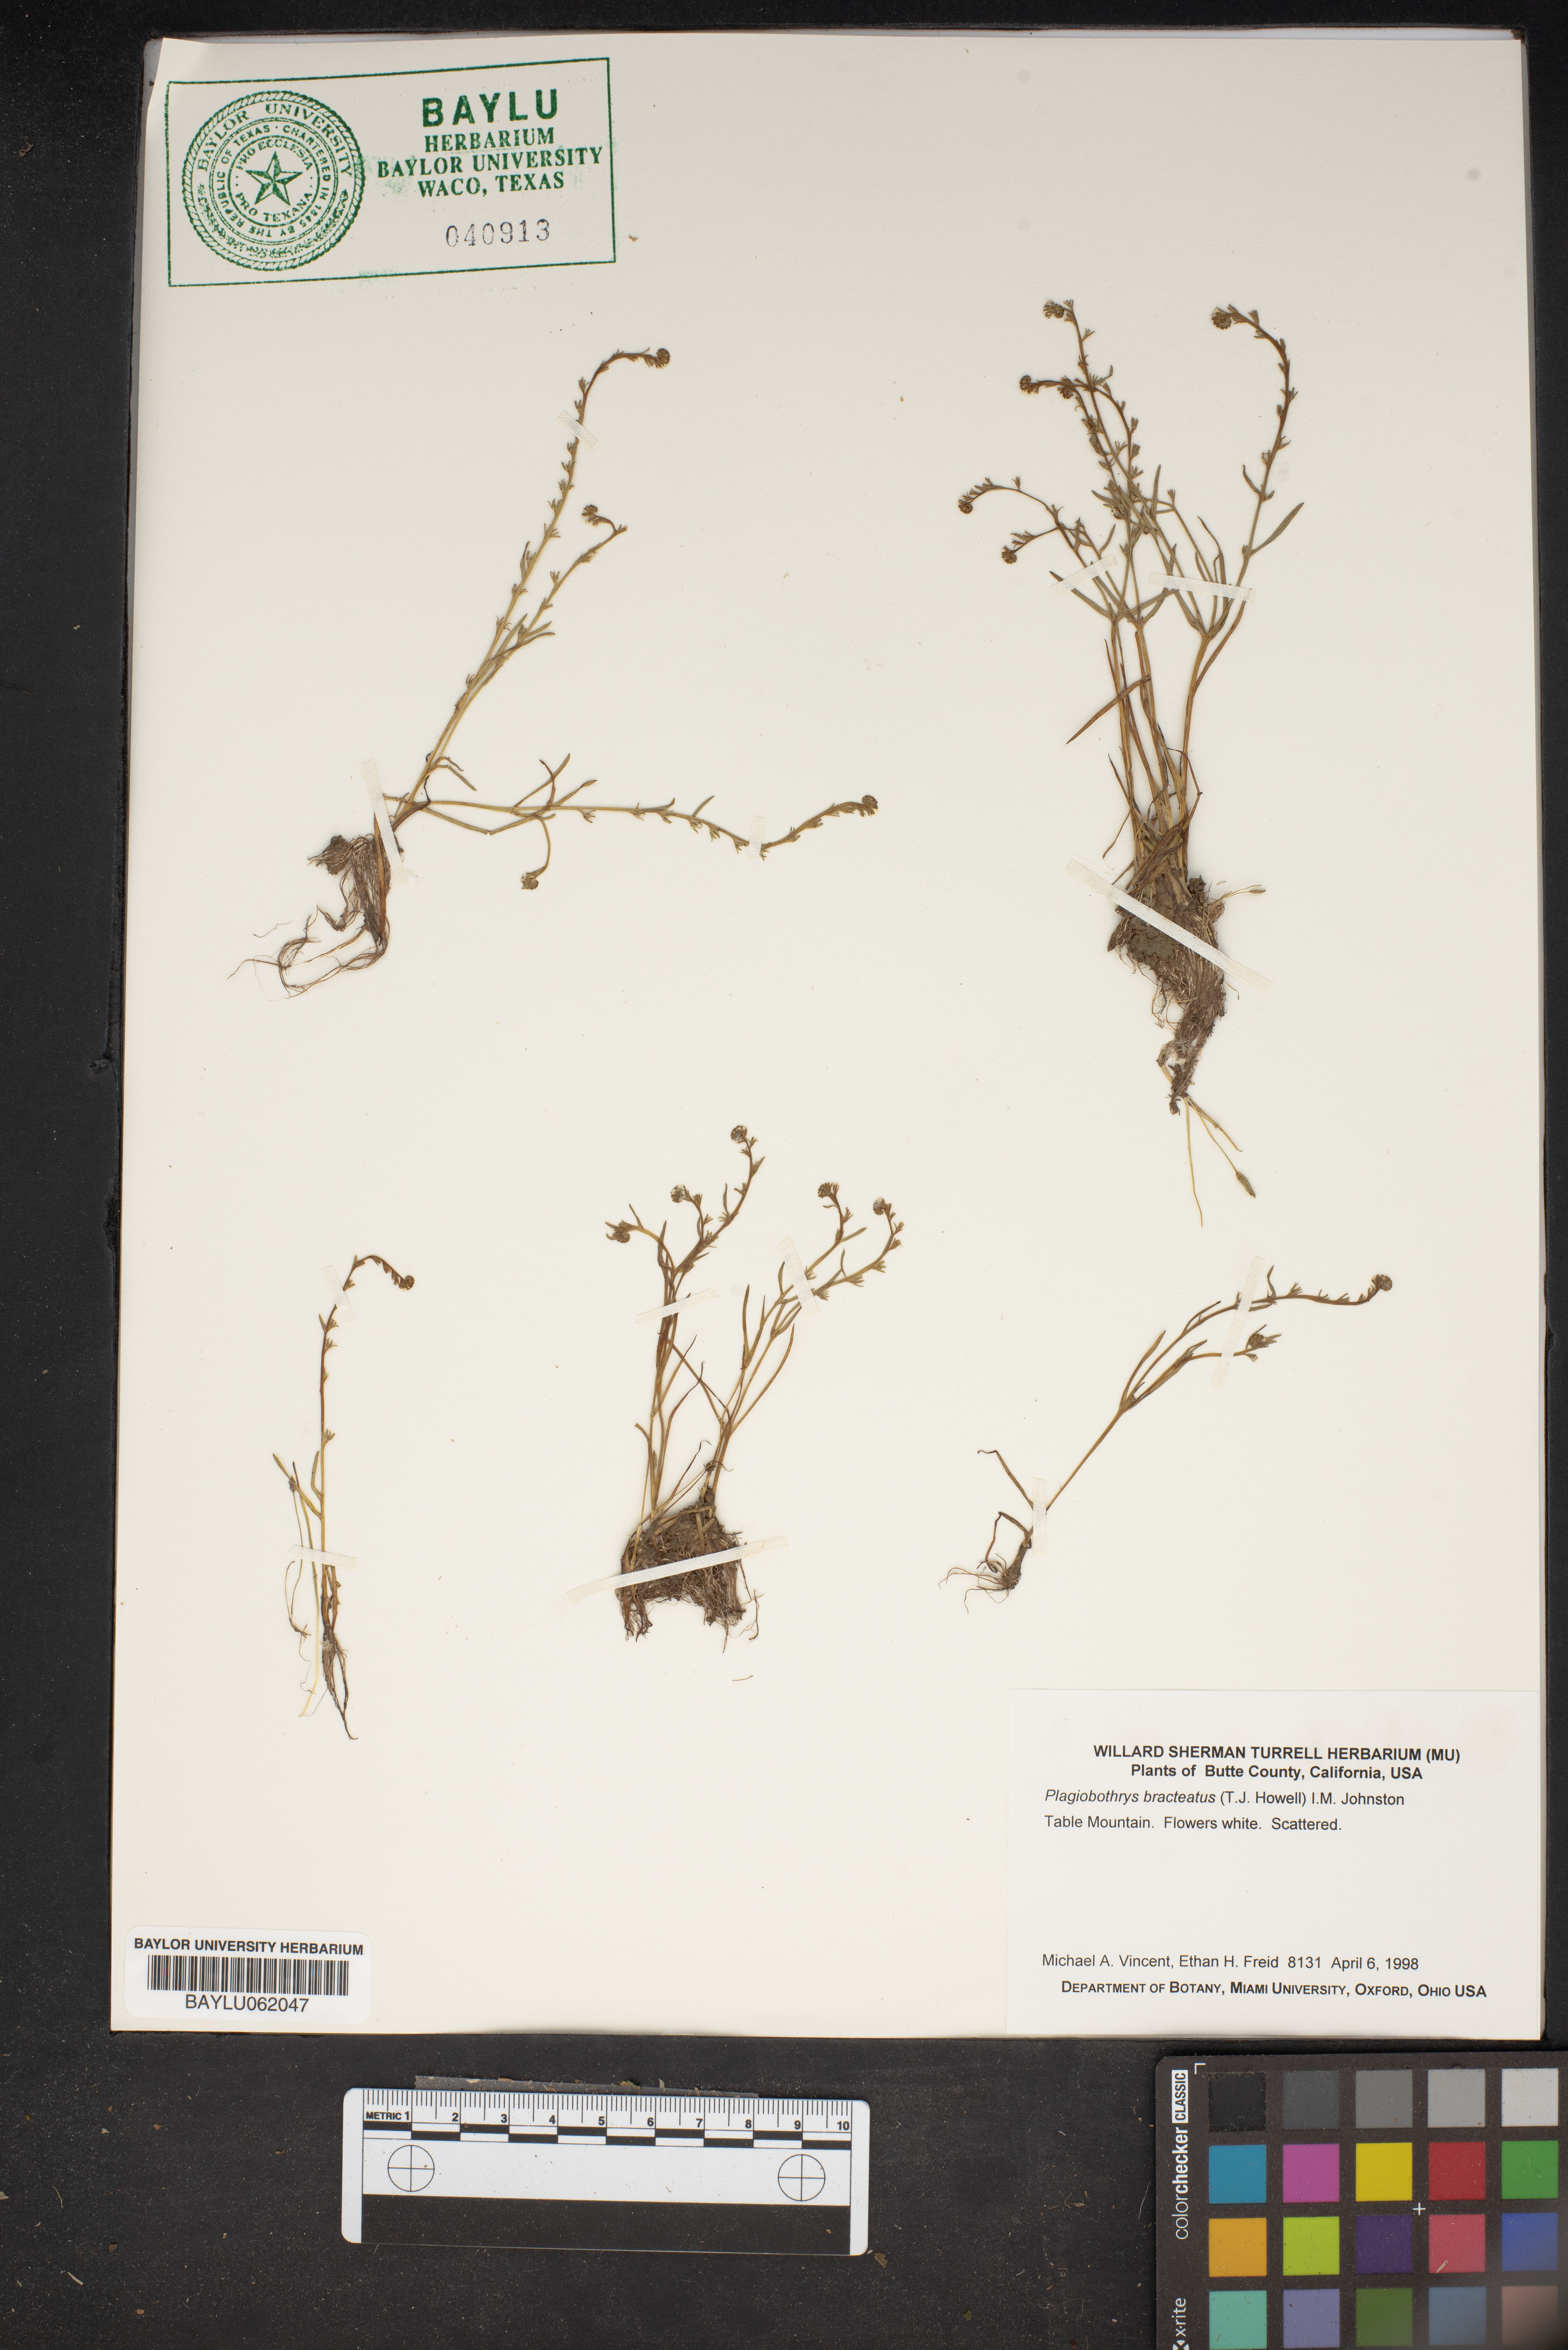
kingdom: Plantae
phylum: Tracheophyta
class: Magnoliopsida
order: Boraginales
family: Boraginaceae
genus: Plagiobothrys
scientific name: Plagiobothrys bracteatus
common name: Bract popcorn-flower
